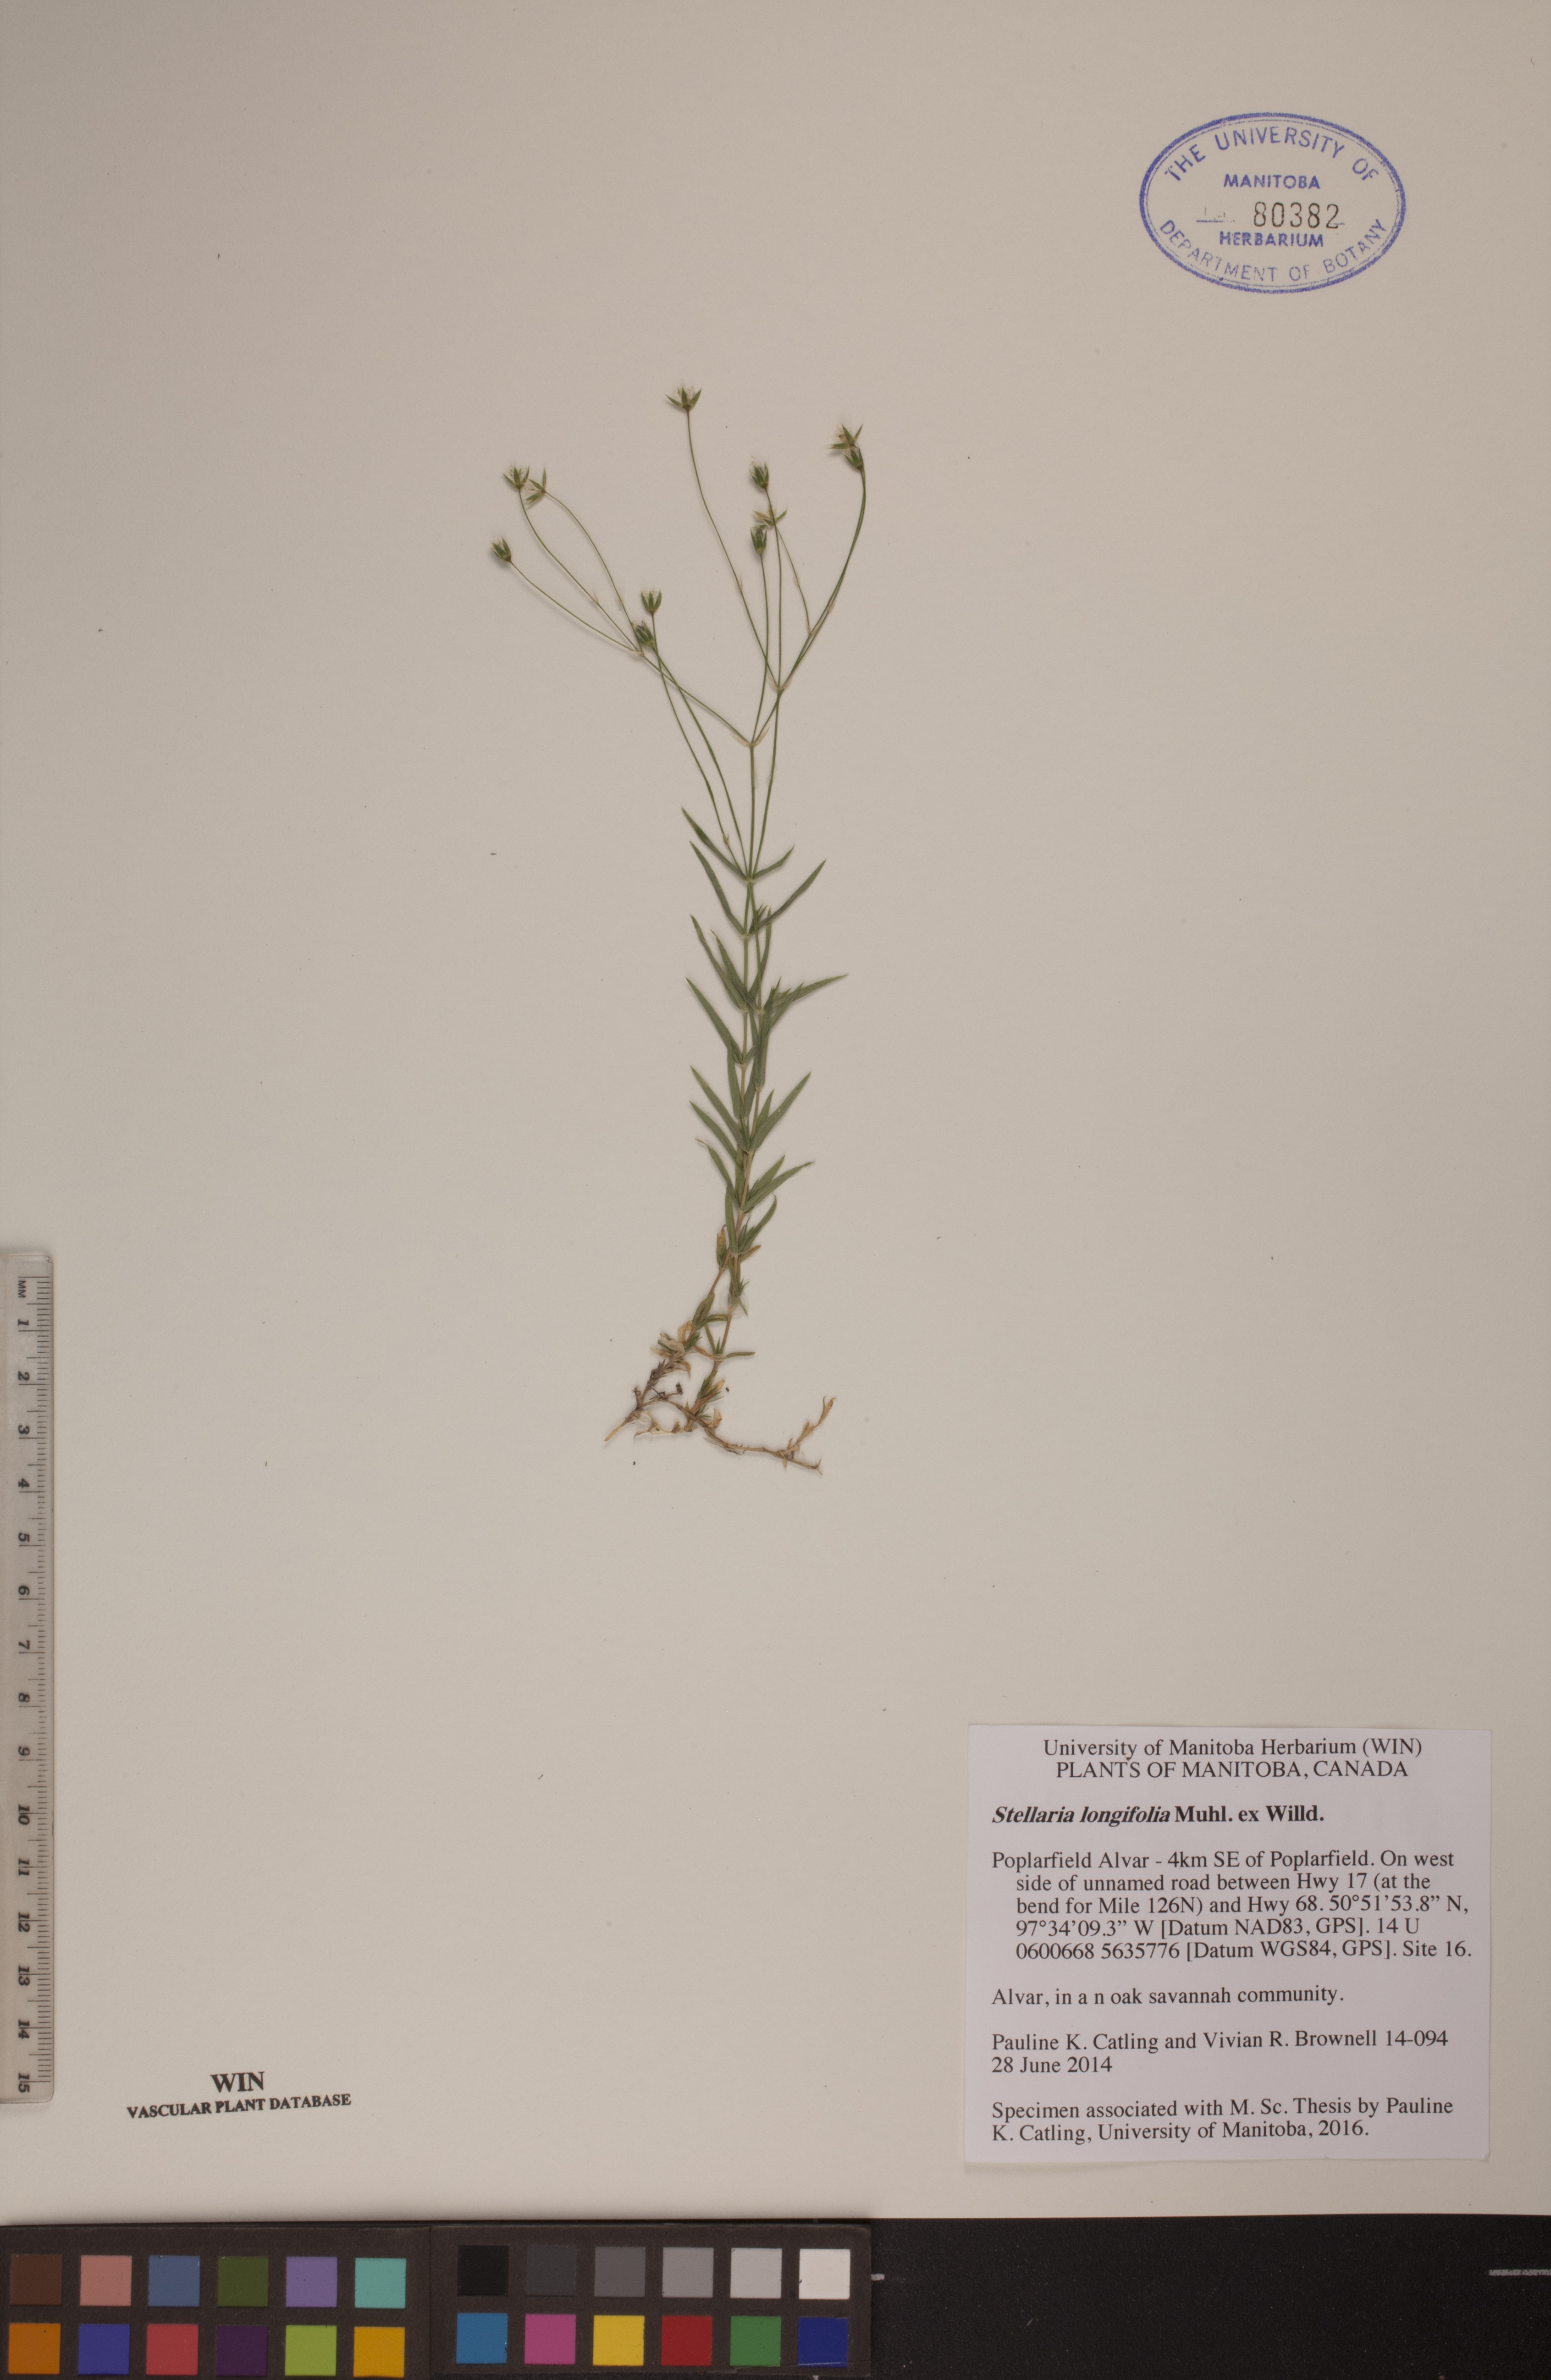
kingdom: Plantae
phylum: Tracheophyta
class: Magnoliopsida
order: Caryophyllales
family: Caryophyllaceae
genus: Stellaria
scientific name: Stellaria longifolia
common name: Long-leaved chickweed
